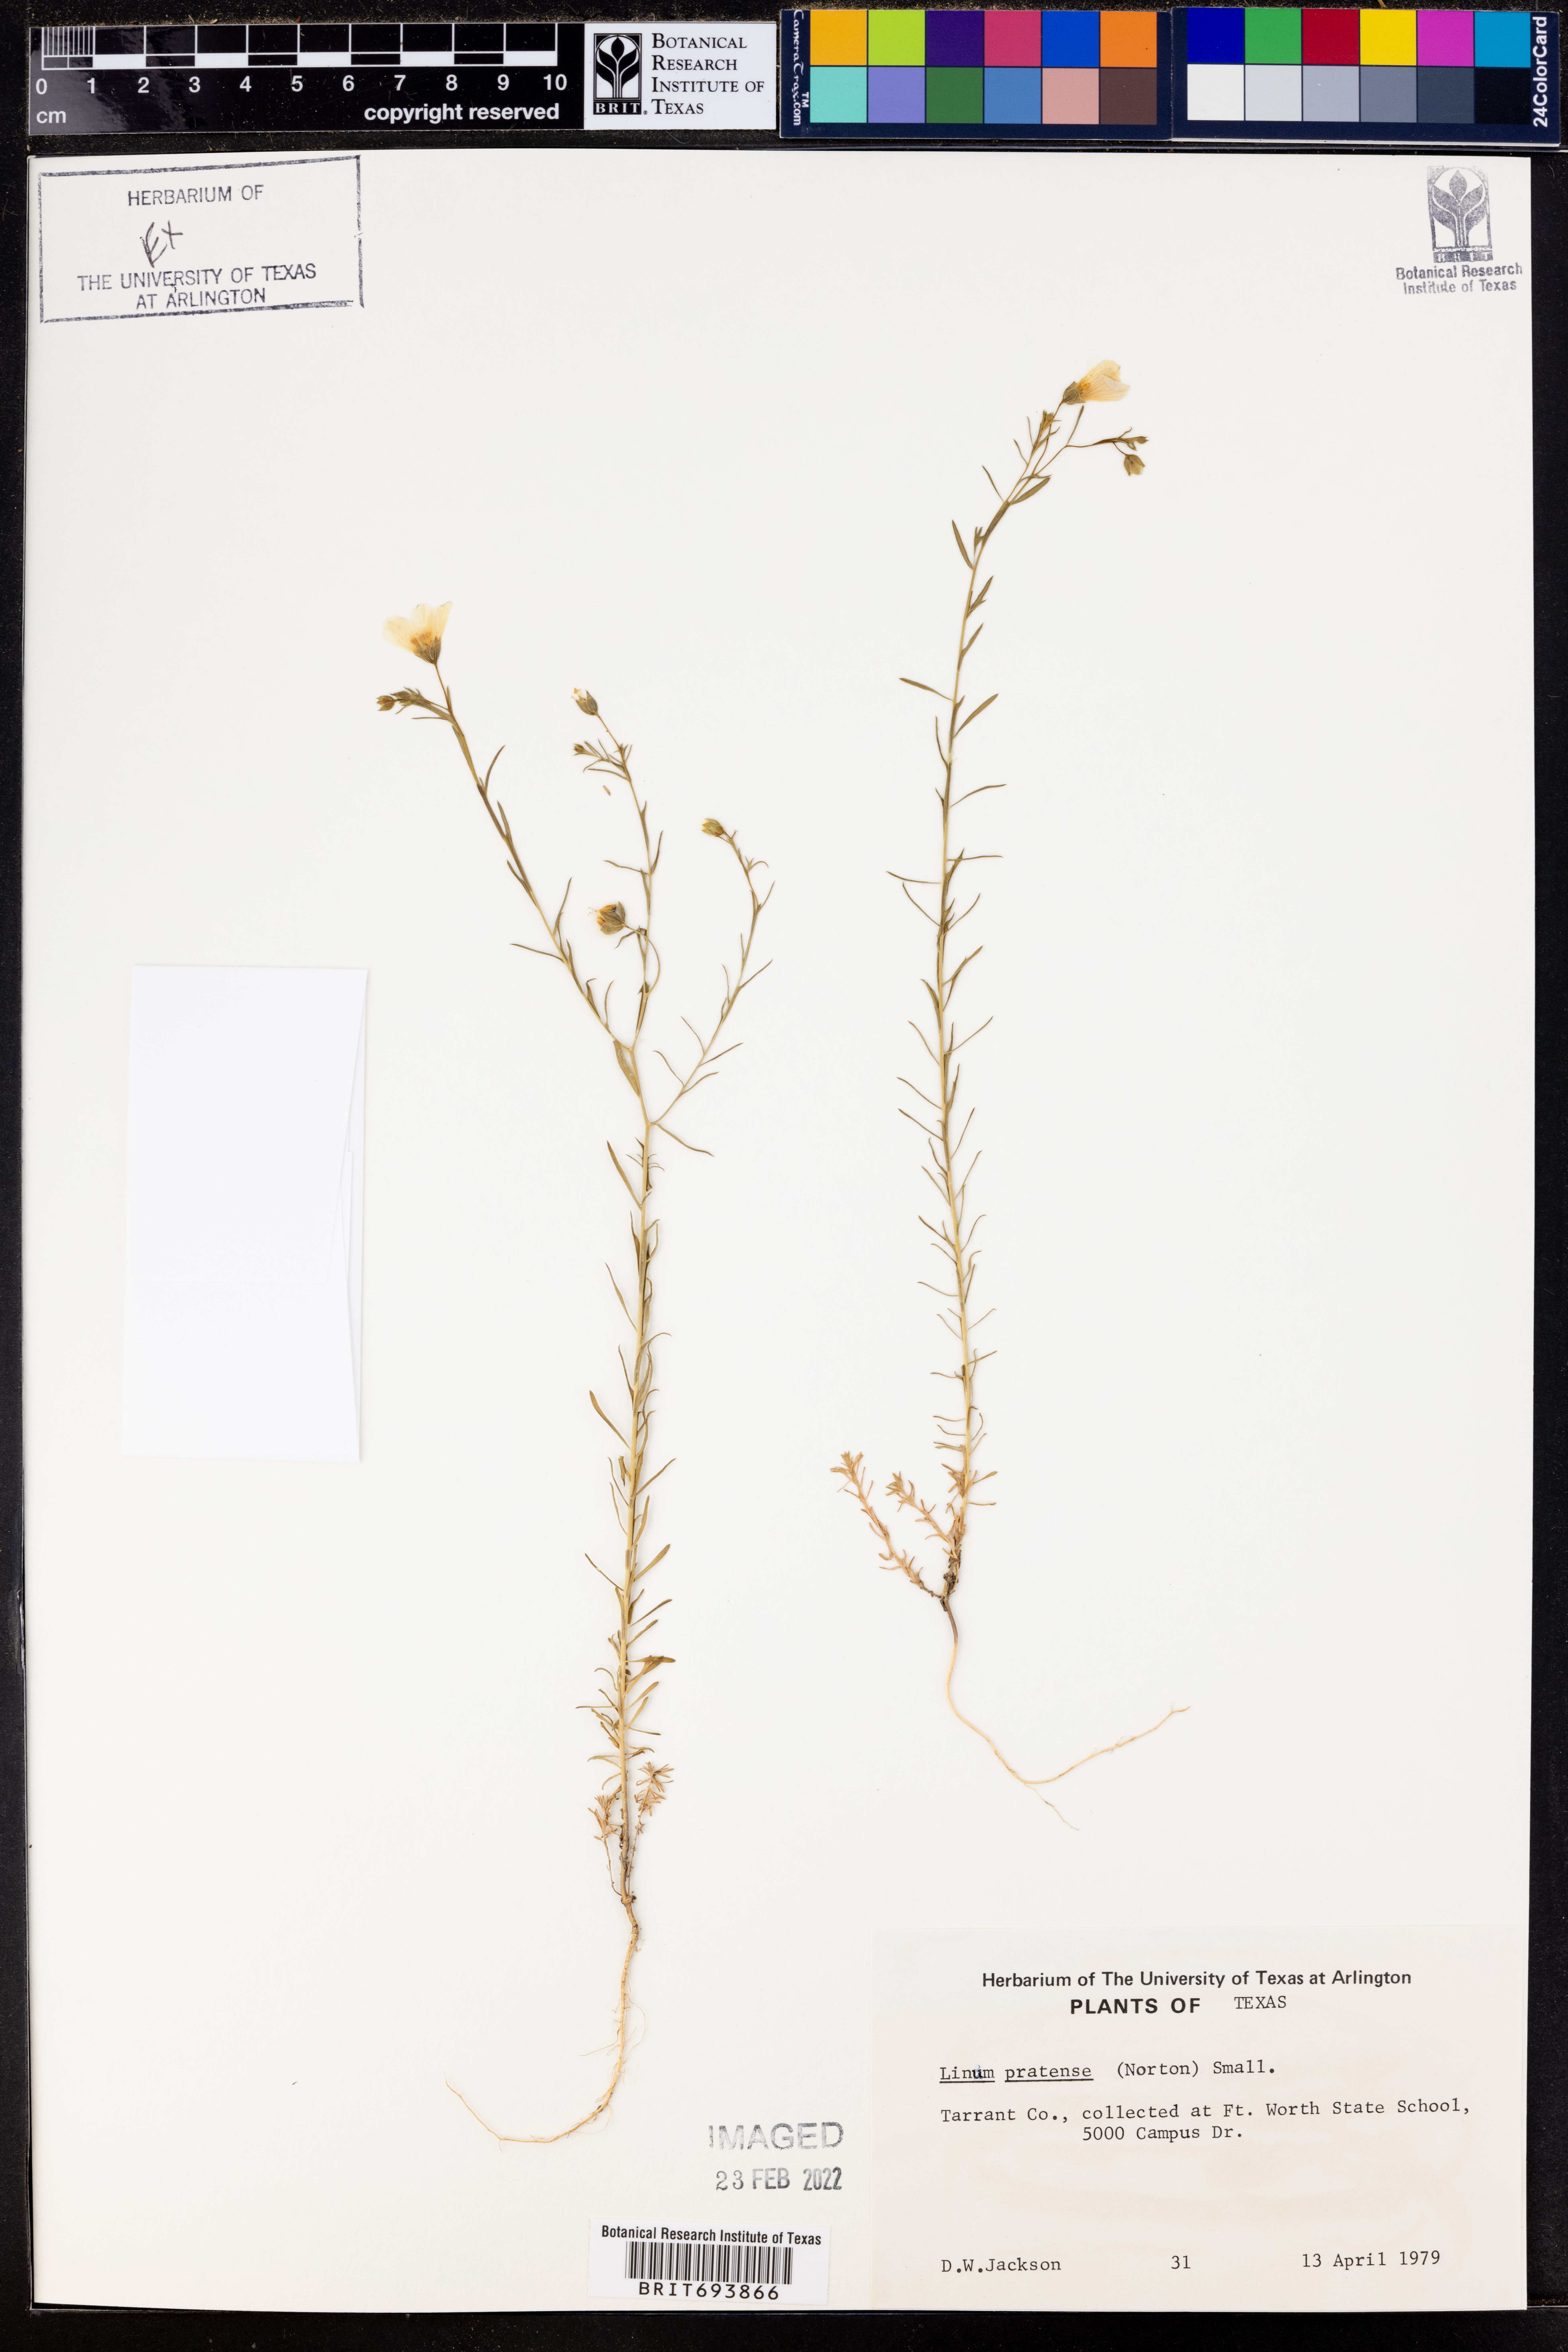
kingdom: Plantae
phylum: Tracheophyta
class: Magnoliopsida
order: Malpighiales
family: Linaceae
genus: Linum
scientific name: Linum pratense
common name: Norton's flax
